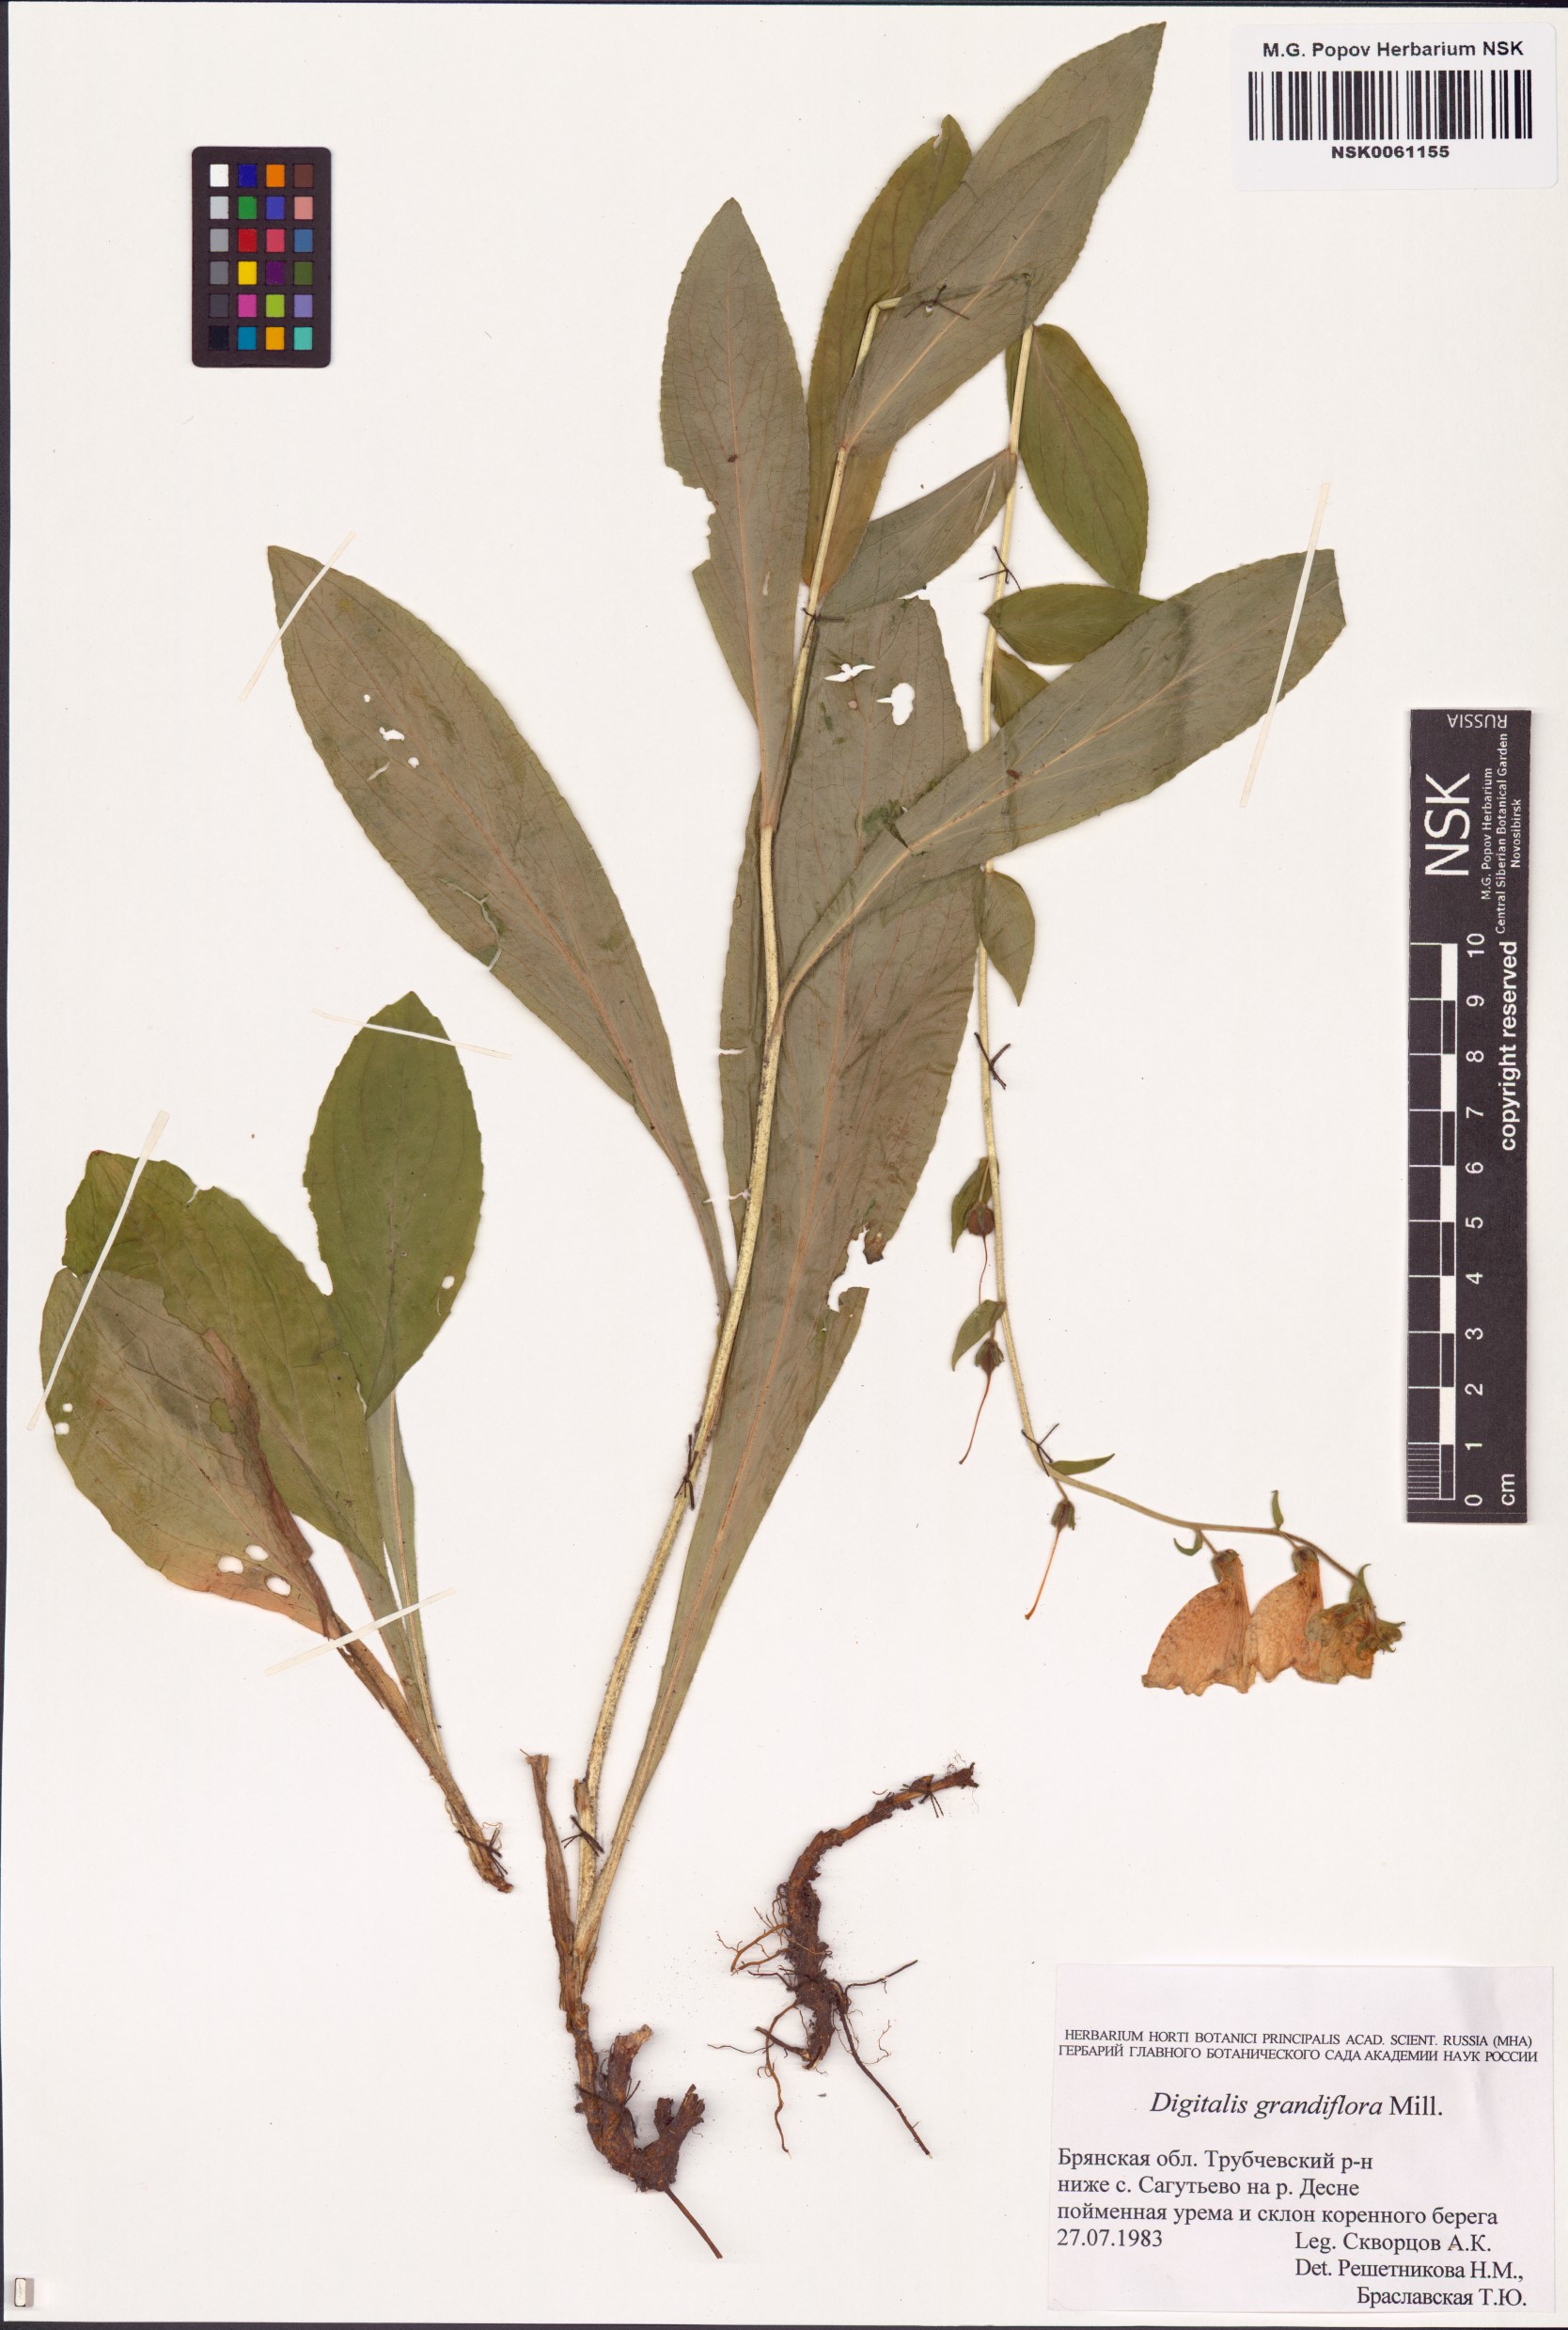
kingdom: Plantae
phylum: Tracheophyta
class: Magnoliopsida
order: Lamiales
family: Plantaginaceae
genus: Digitalis
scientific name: Digitalis grandiflora
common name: Yellow foxglove
